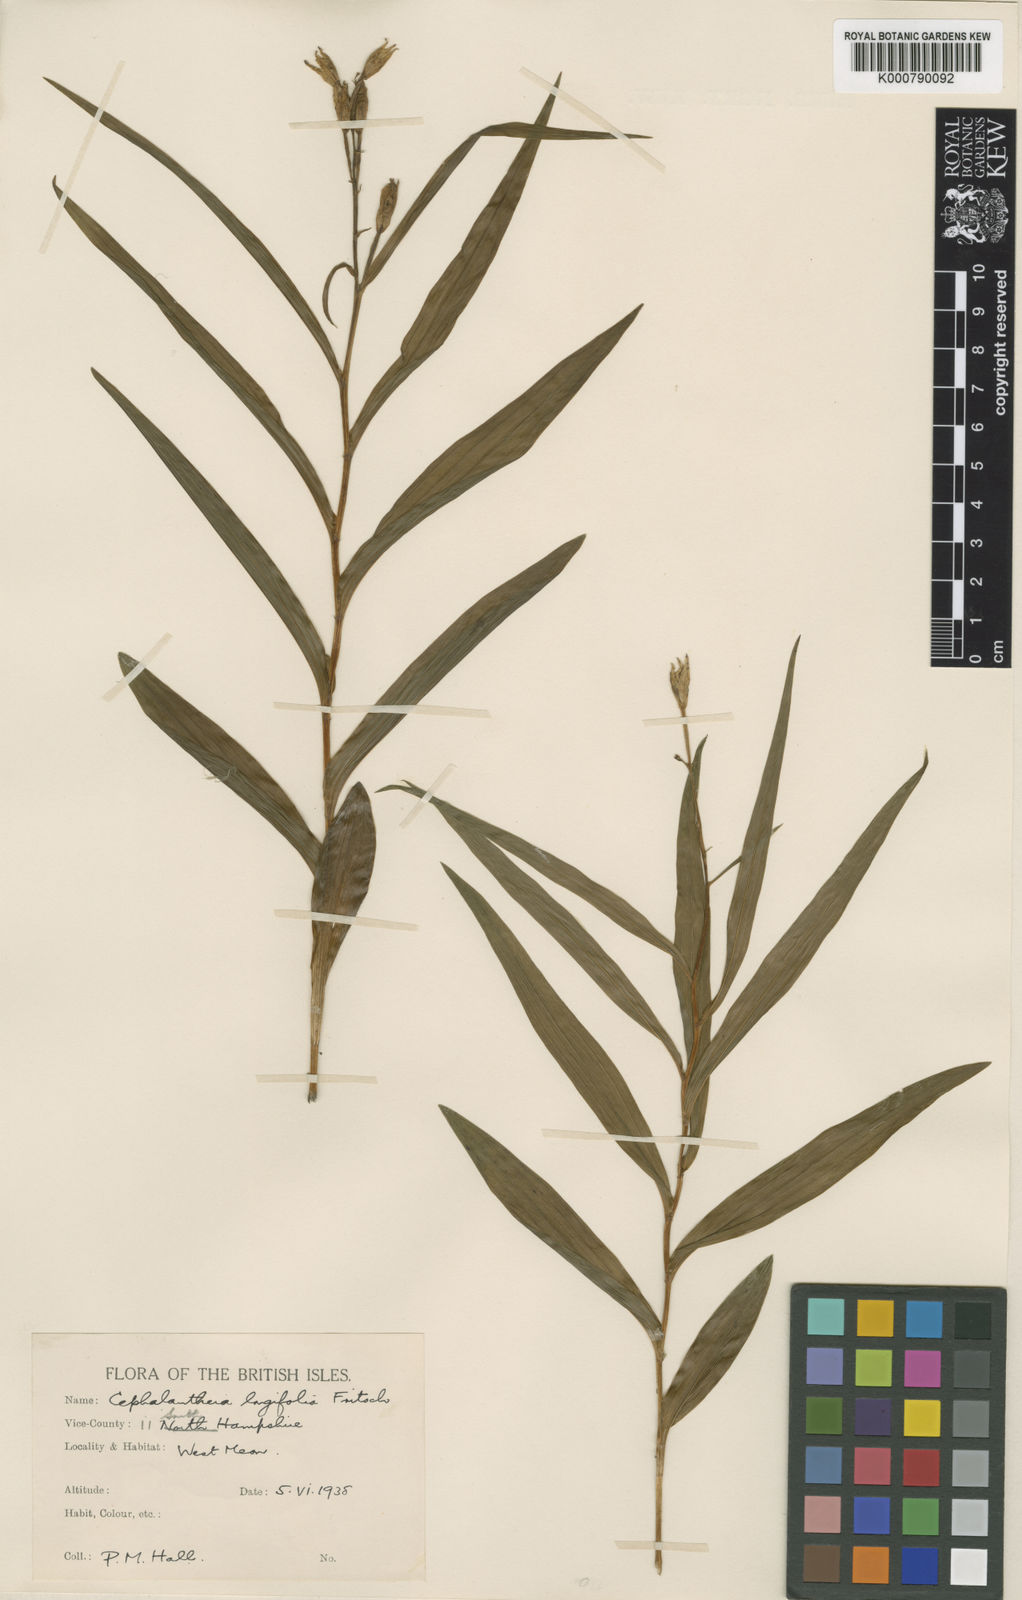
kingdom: Plantae
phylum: Tracheophyta
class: Liliopsida
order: Asparagales
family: Orchidaceae
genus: Cephalanthera
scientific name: Cephalanthera longifolia
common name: Narrow-leaved helleborine
